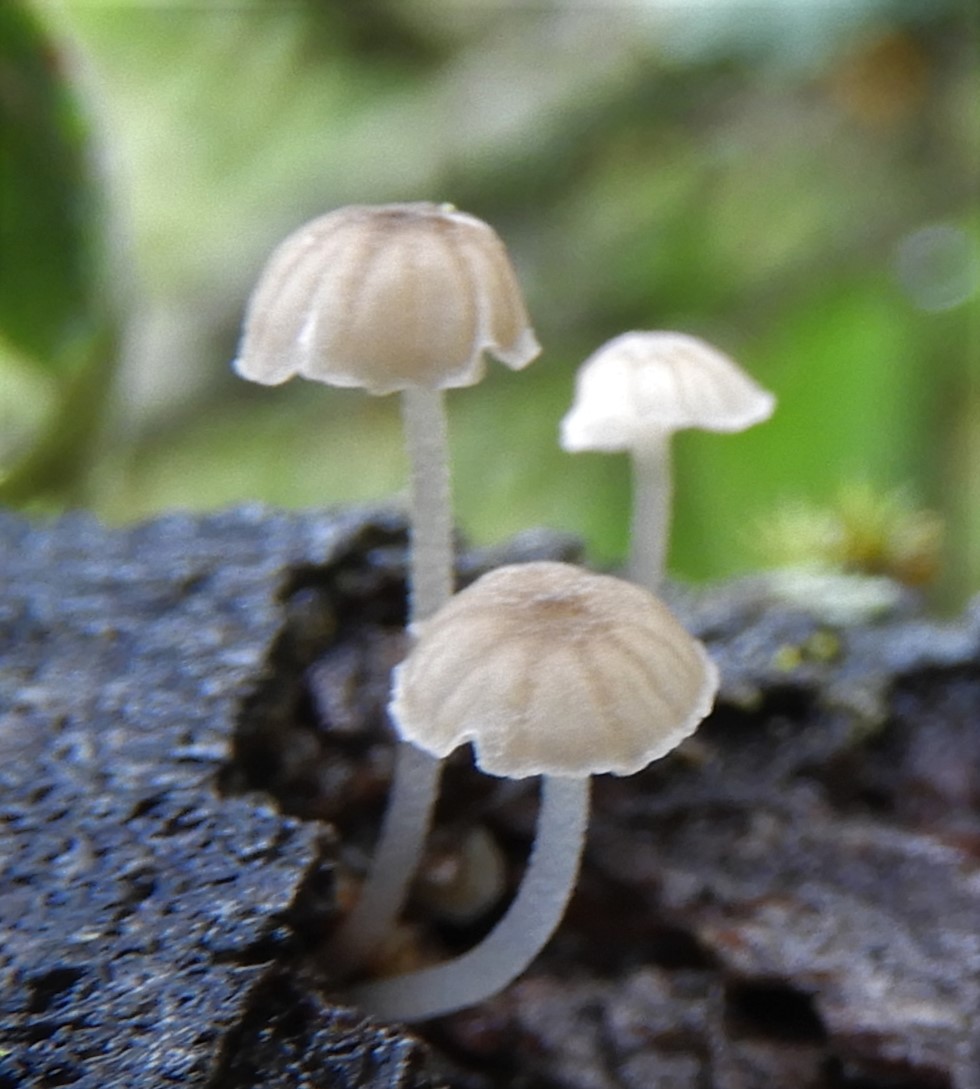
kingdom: Fungi
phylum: Basidiomycota
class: Agaricomycetes
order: Agaricales
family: Porotheleaceae
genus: Phloeomana
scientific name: Phloeomana speirea
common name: kvist-huesvamp
